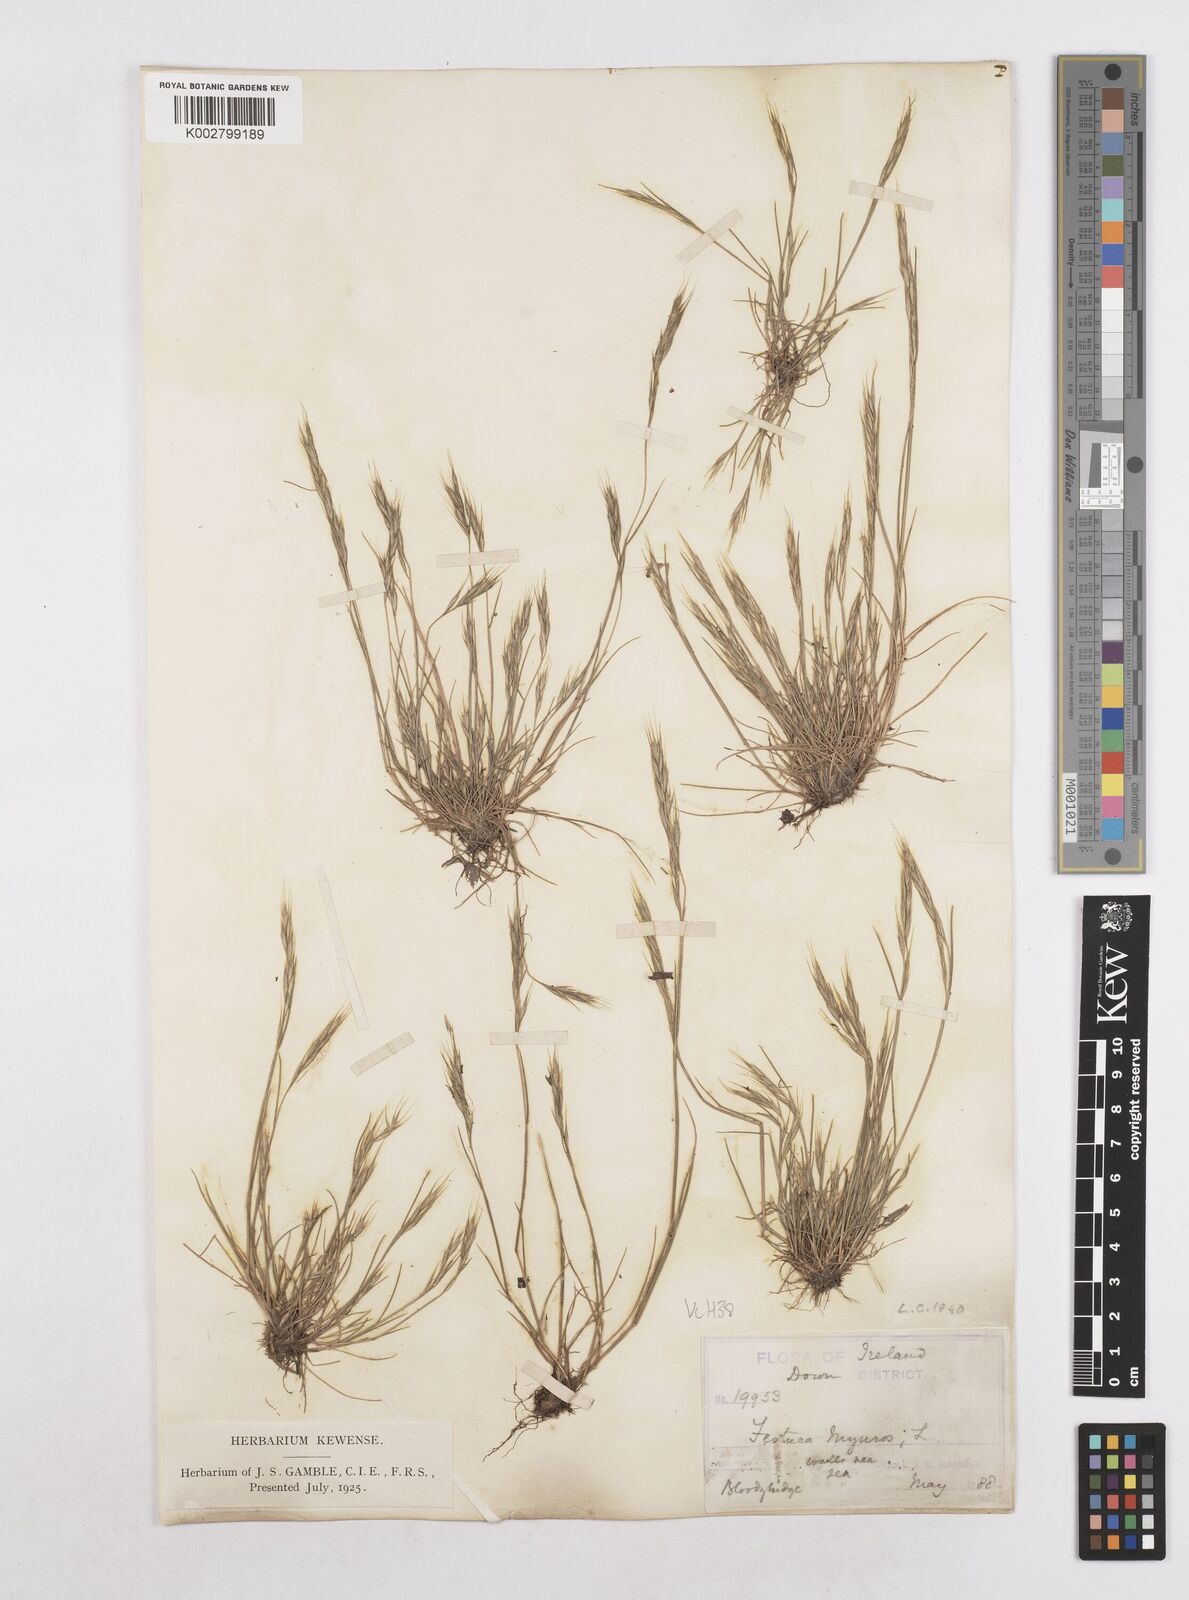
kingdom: Plantae
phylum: Tracheophyta
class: Liliopsida
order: Poales
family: Poaceae
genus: Festuca
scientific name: Festuca bromoides
